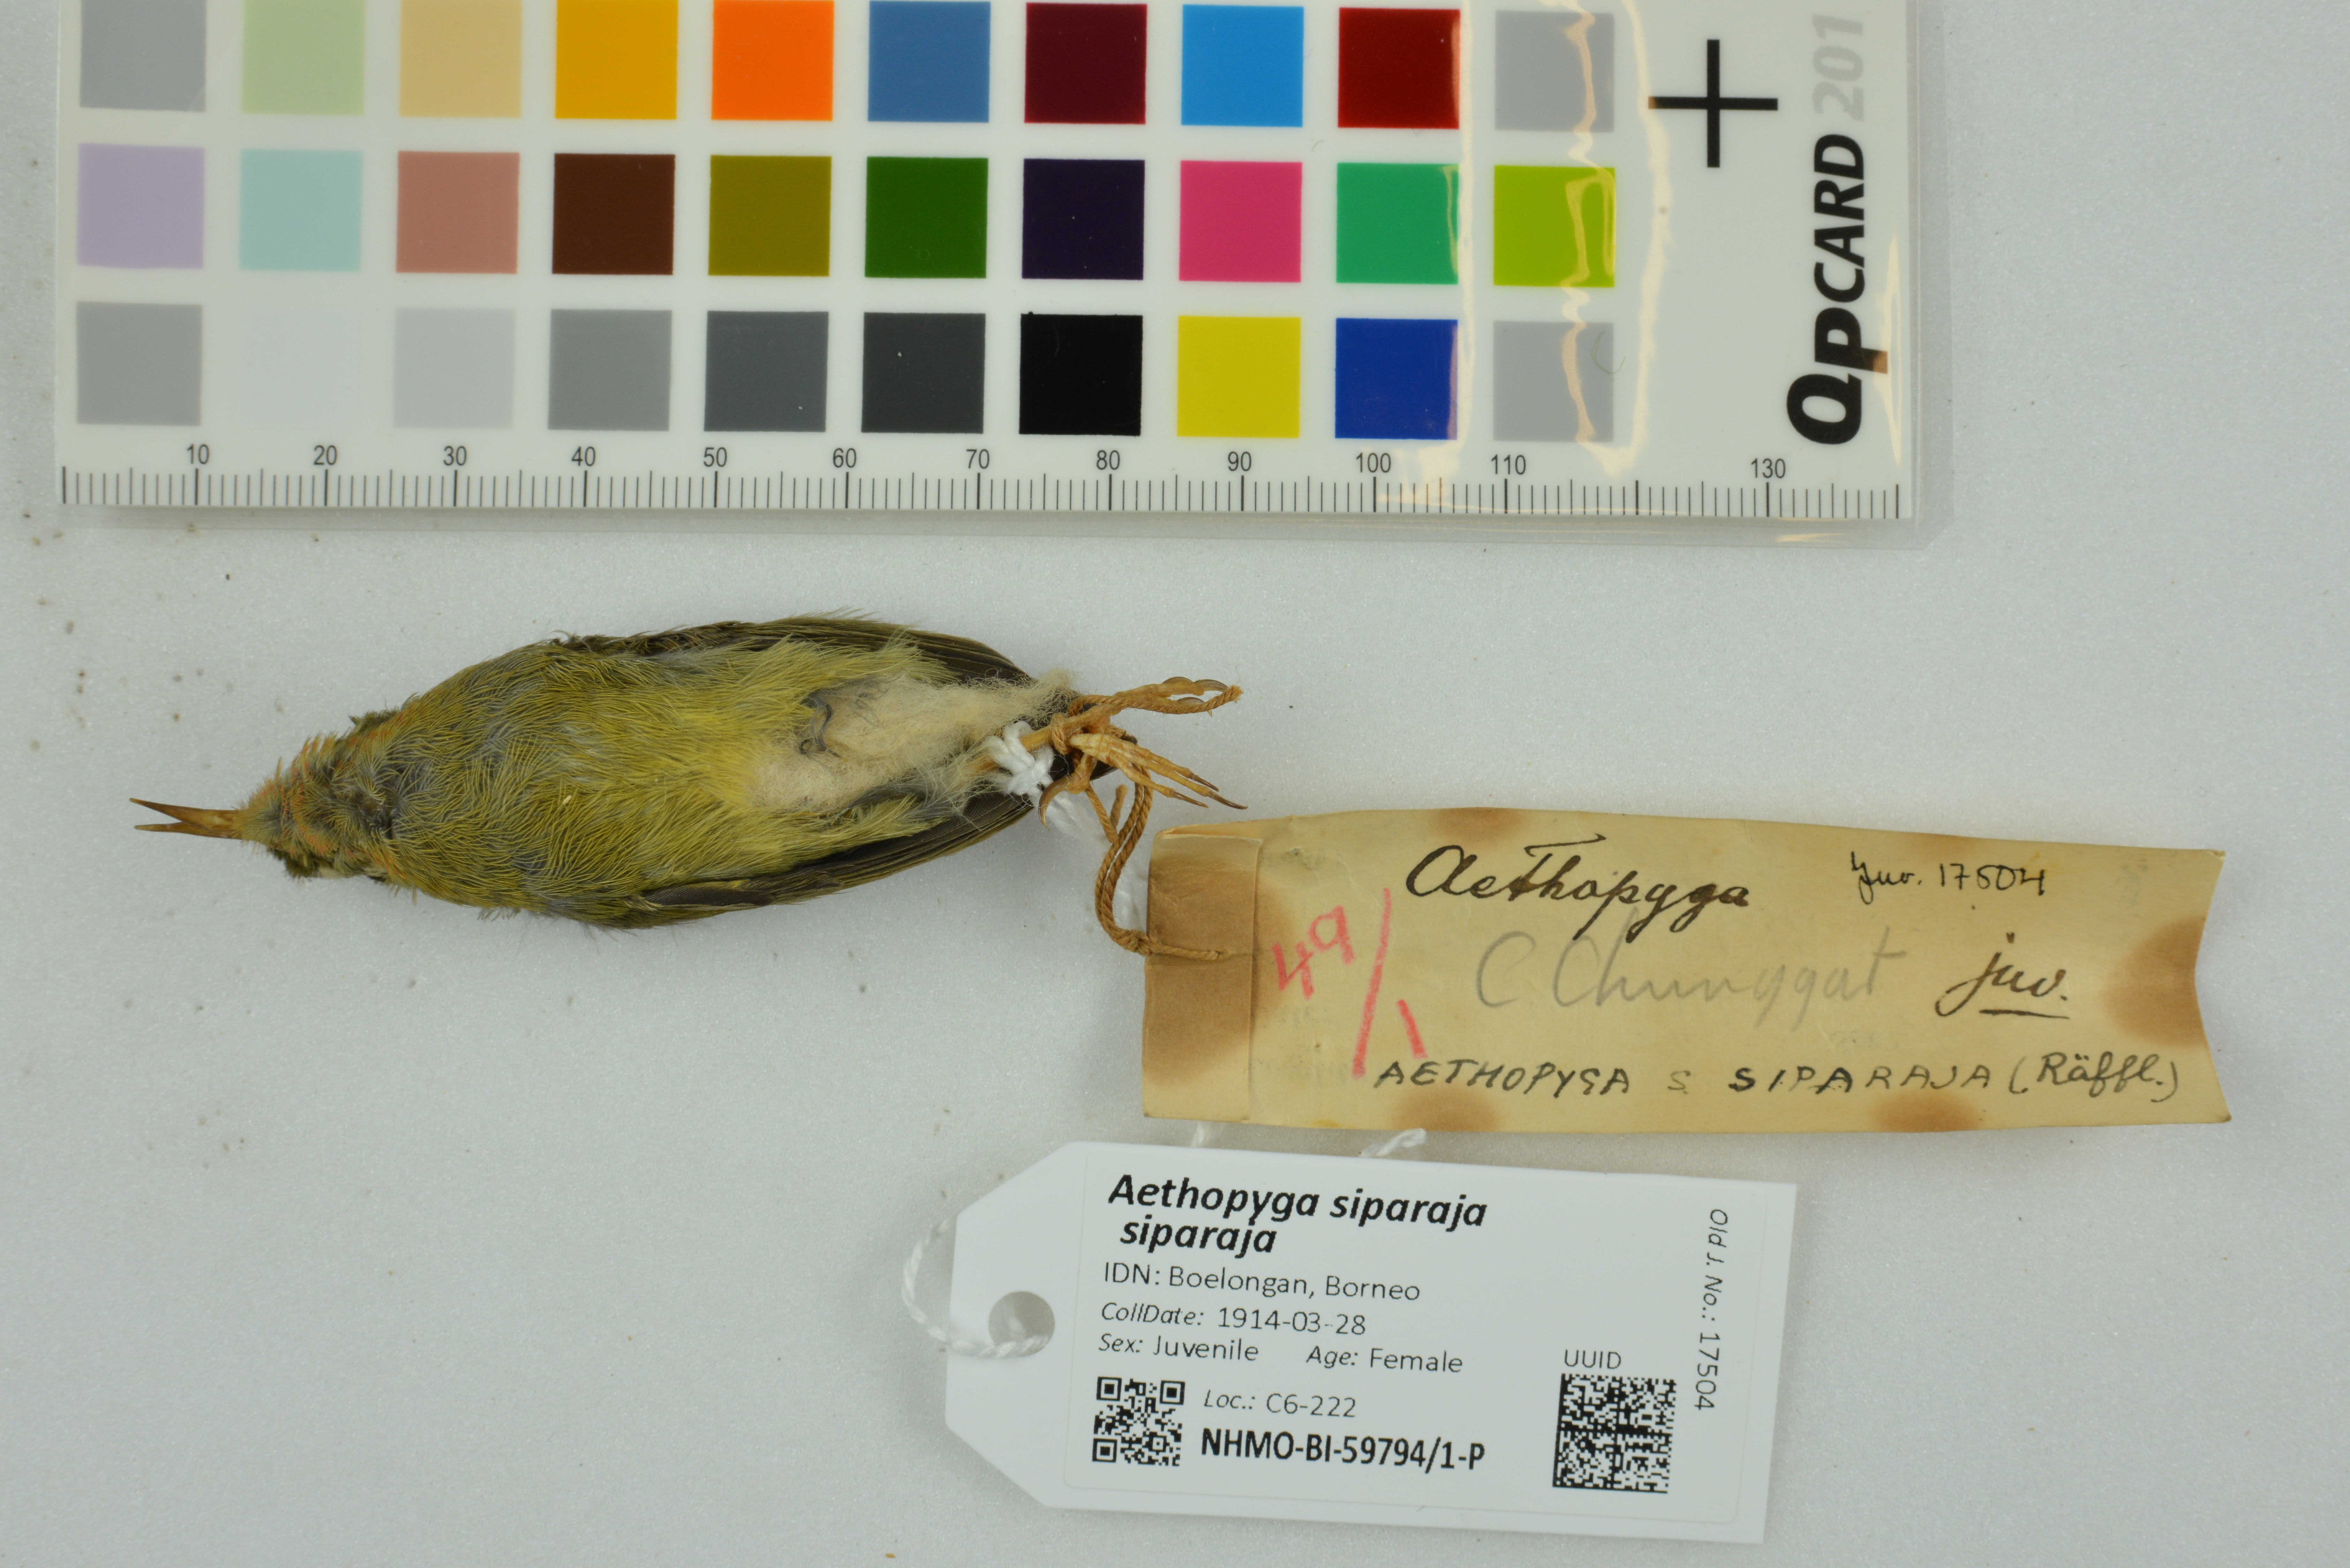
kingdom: Animalia
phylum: Chordata
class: Aves
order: Passeriformes
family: Nectariniidae
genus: Aethopyga
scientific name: Aethopyga siparaja
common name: Crimson sunbird
